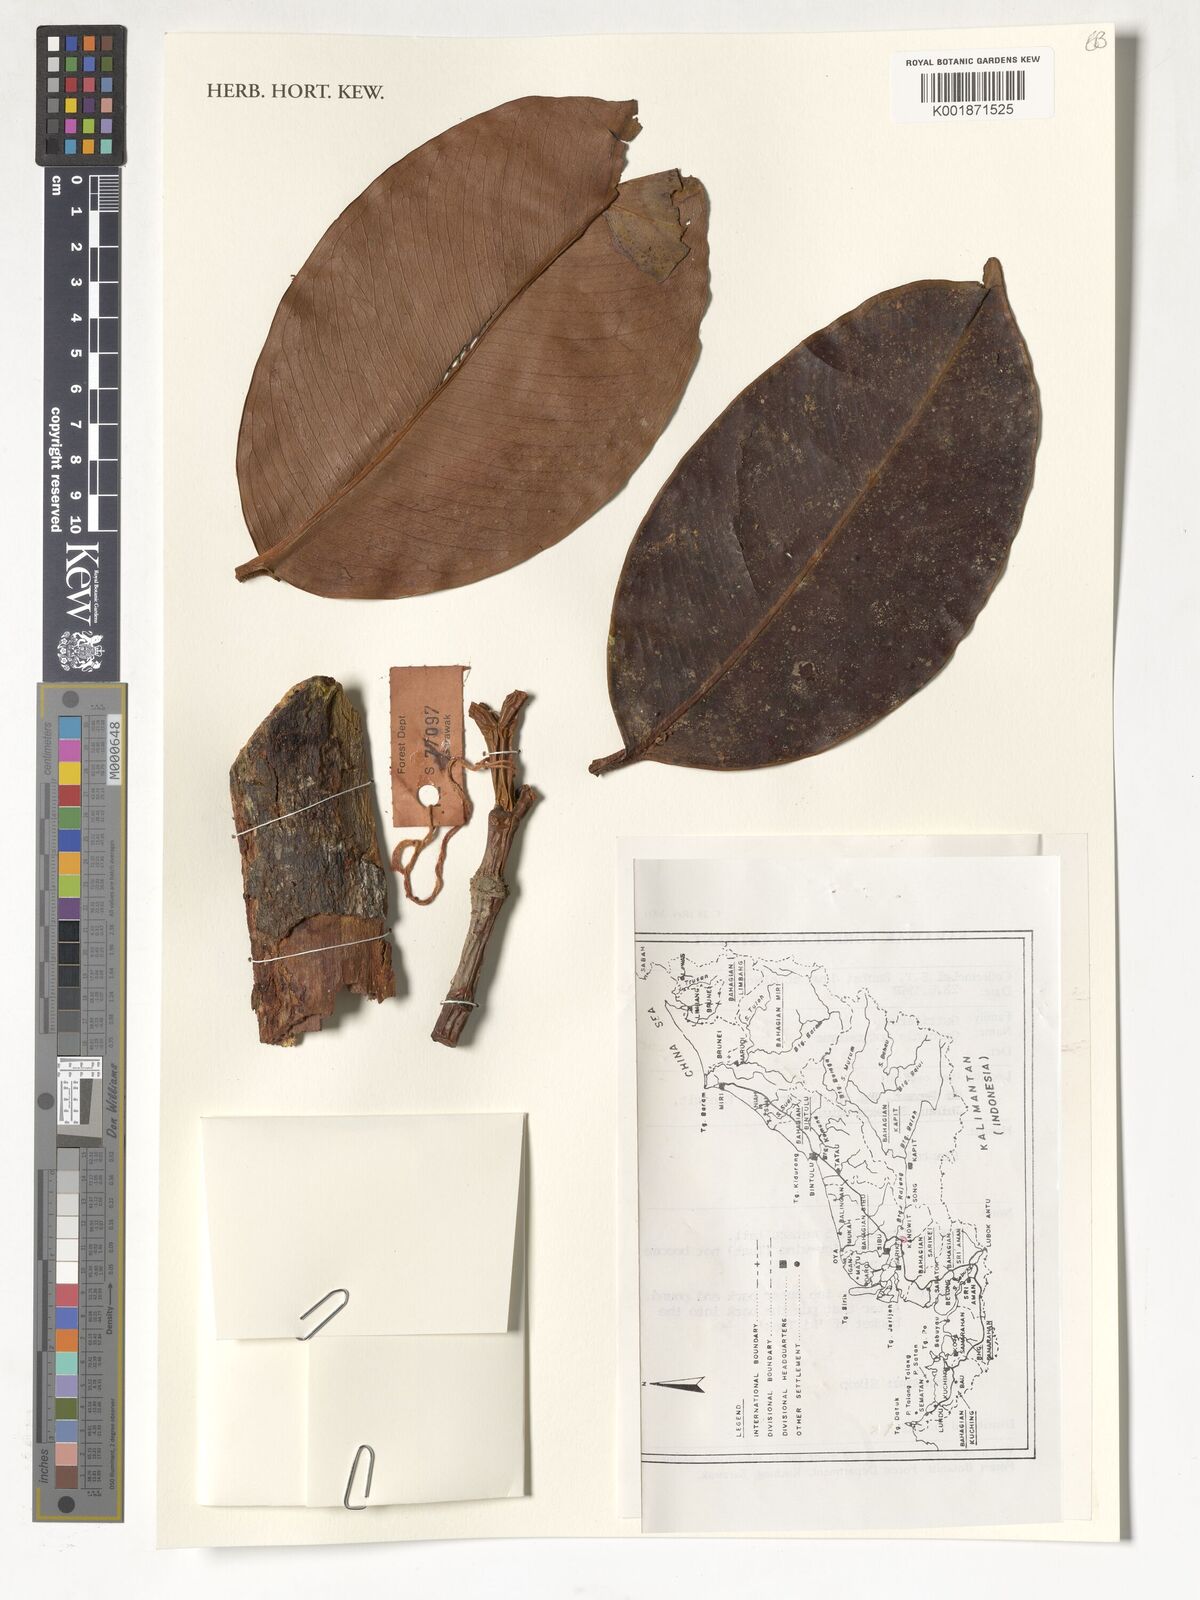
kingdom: Plantae
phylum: Tracheophyta
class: Magnoliopsida
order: Malpighiales
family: Clusiaceae
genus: Garcinia
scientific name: Garcinia mangostana
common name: Mangosteen
